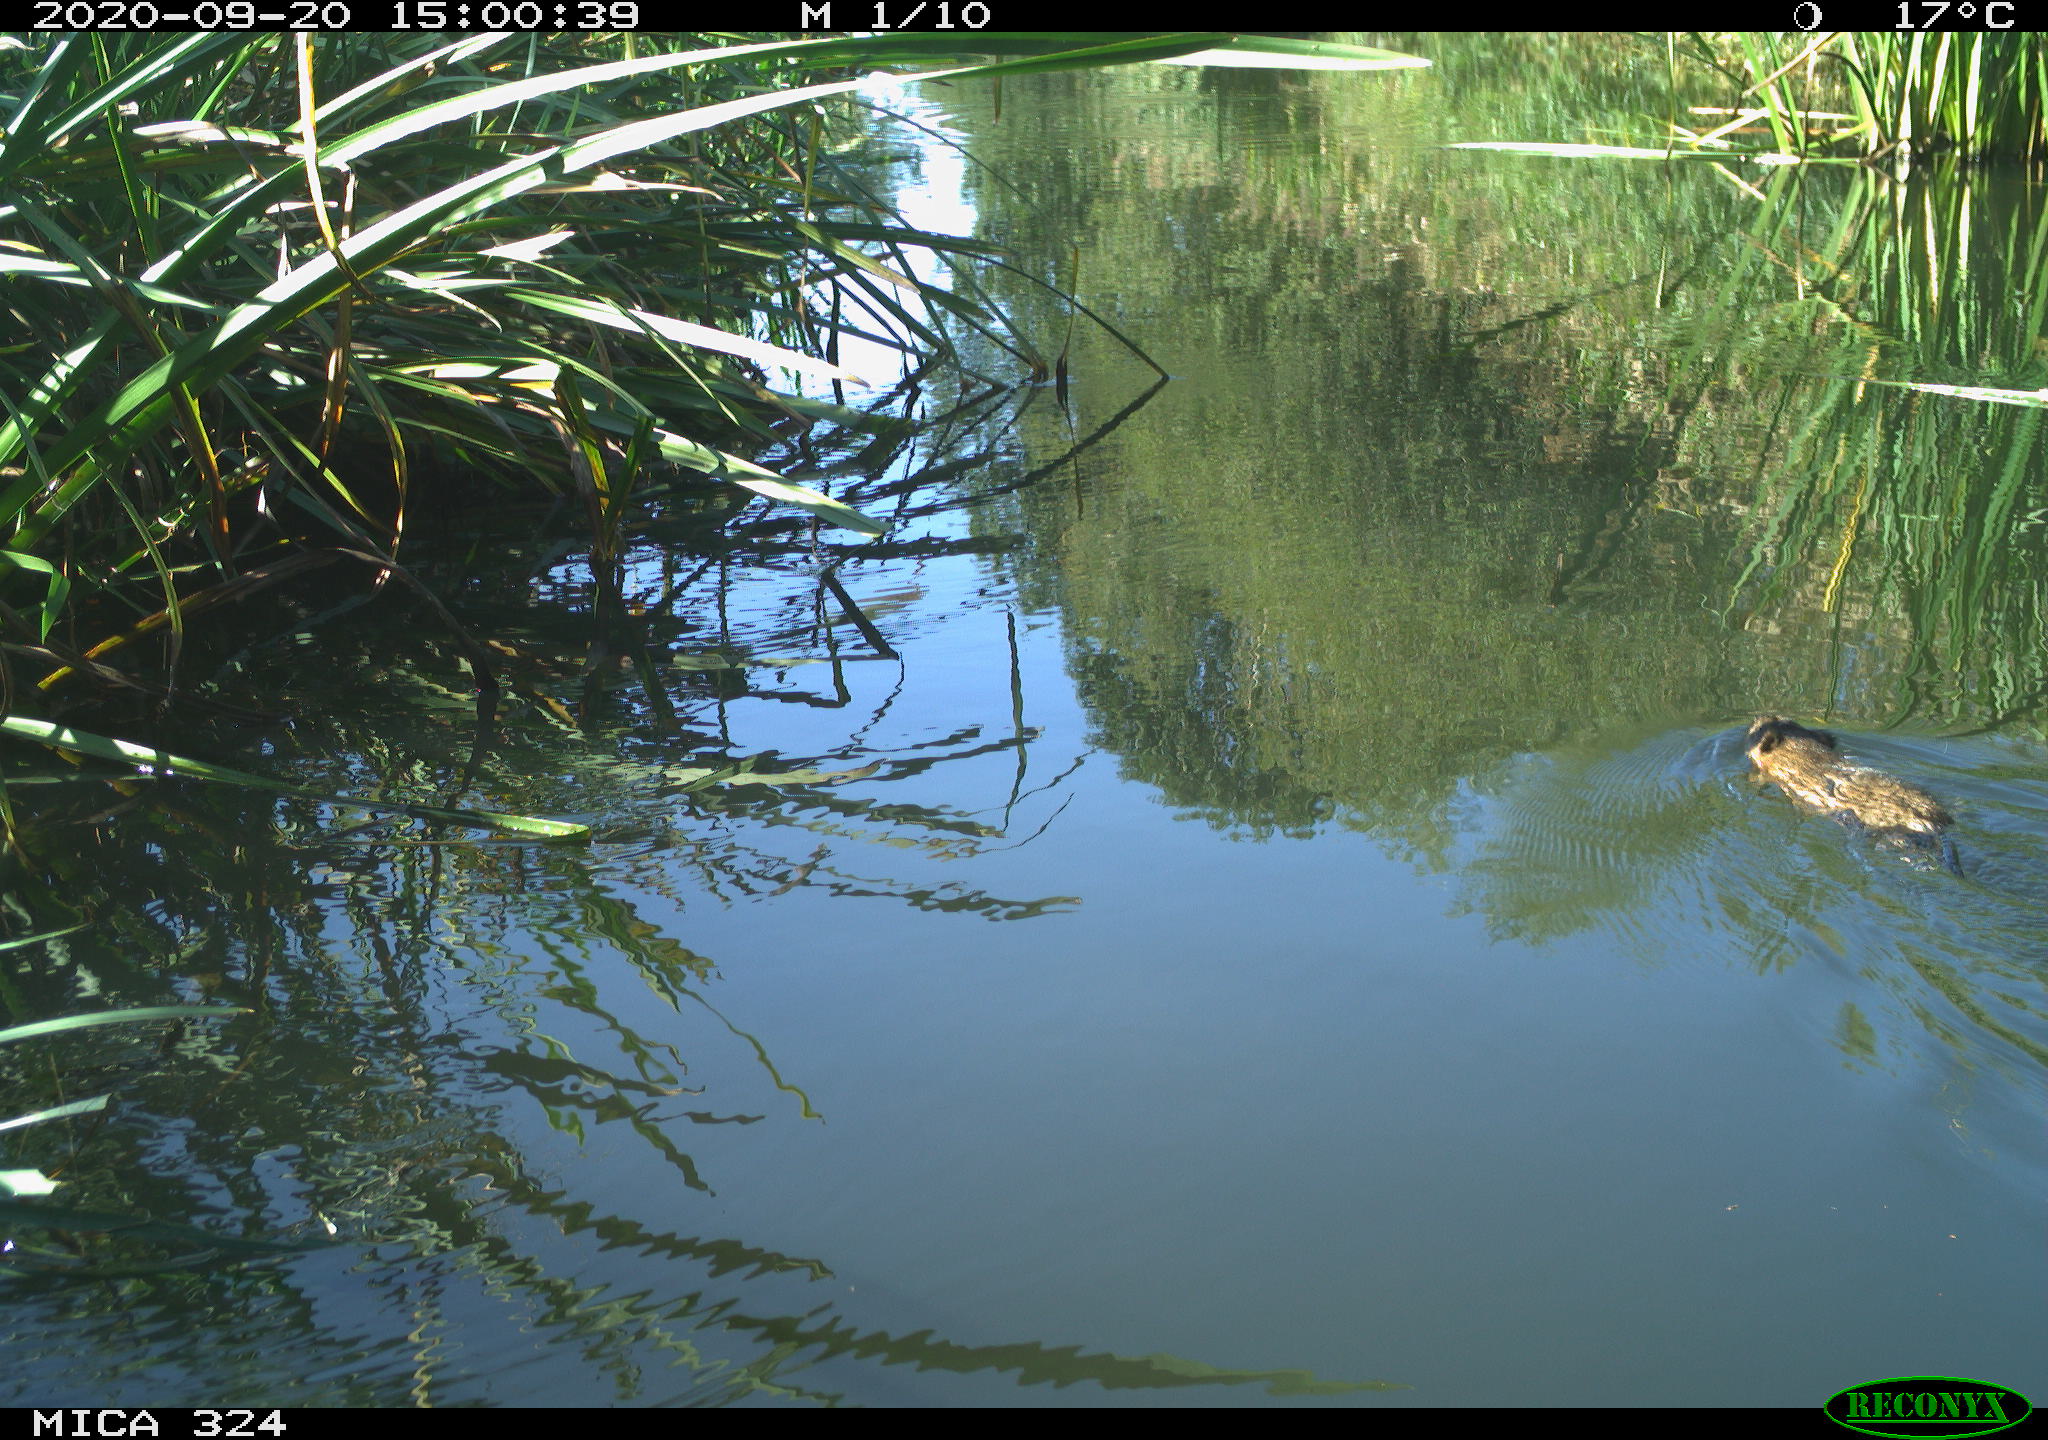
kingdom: Animalia
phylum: Chordata
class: Mammalia
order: Rodentia
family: Myocastoridae
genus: Myocastor
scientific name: Myocastor coypus
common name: Coypu
